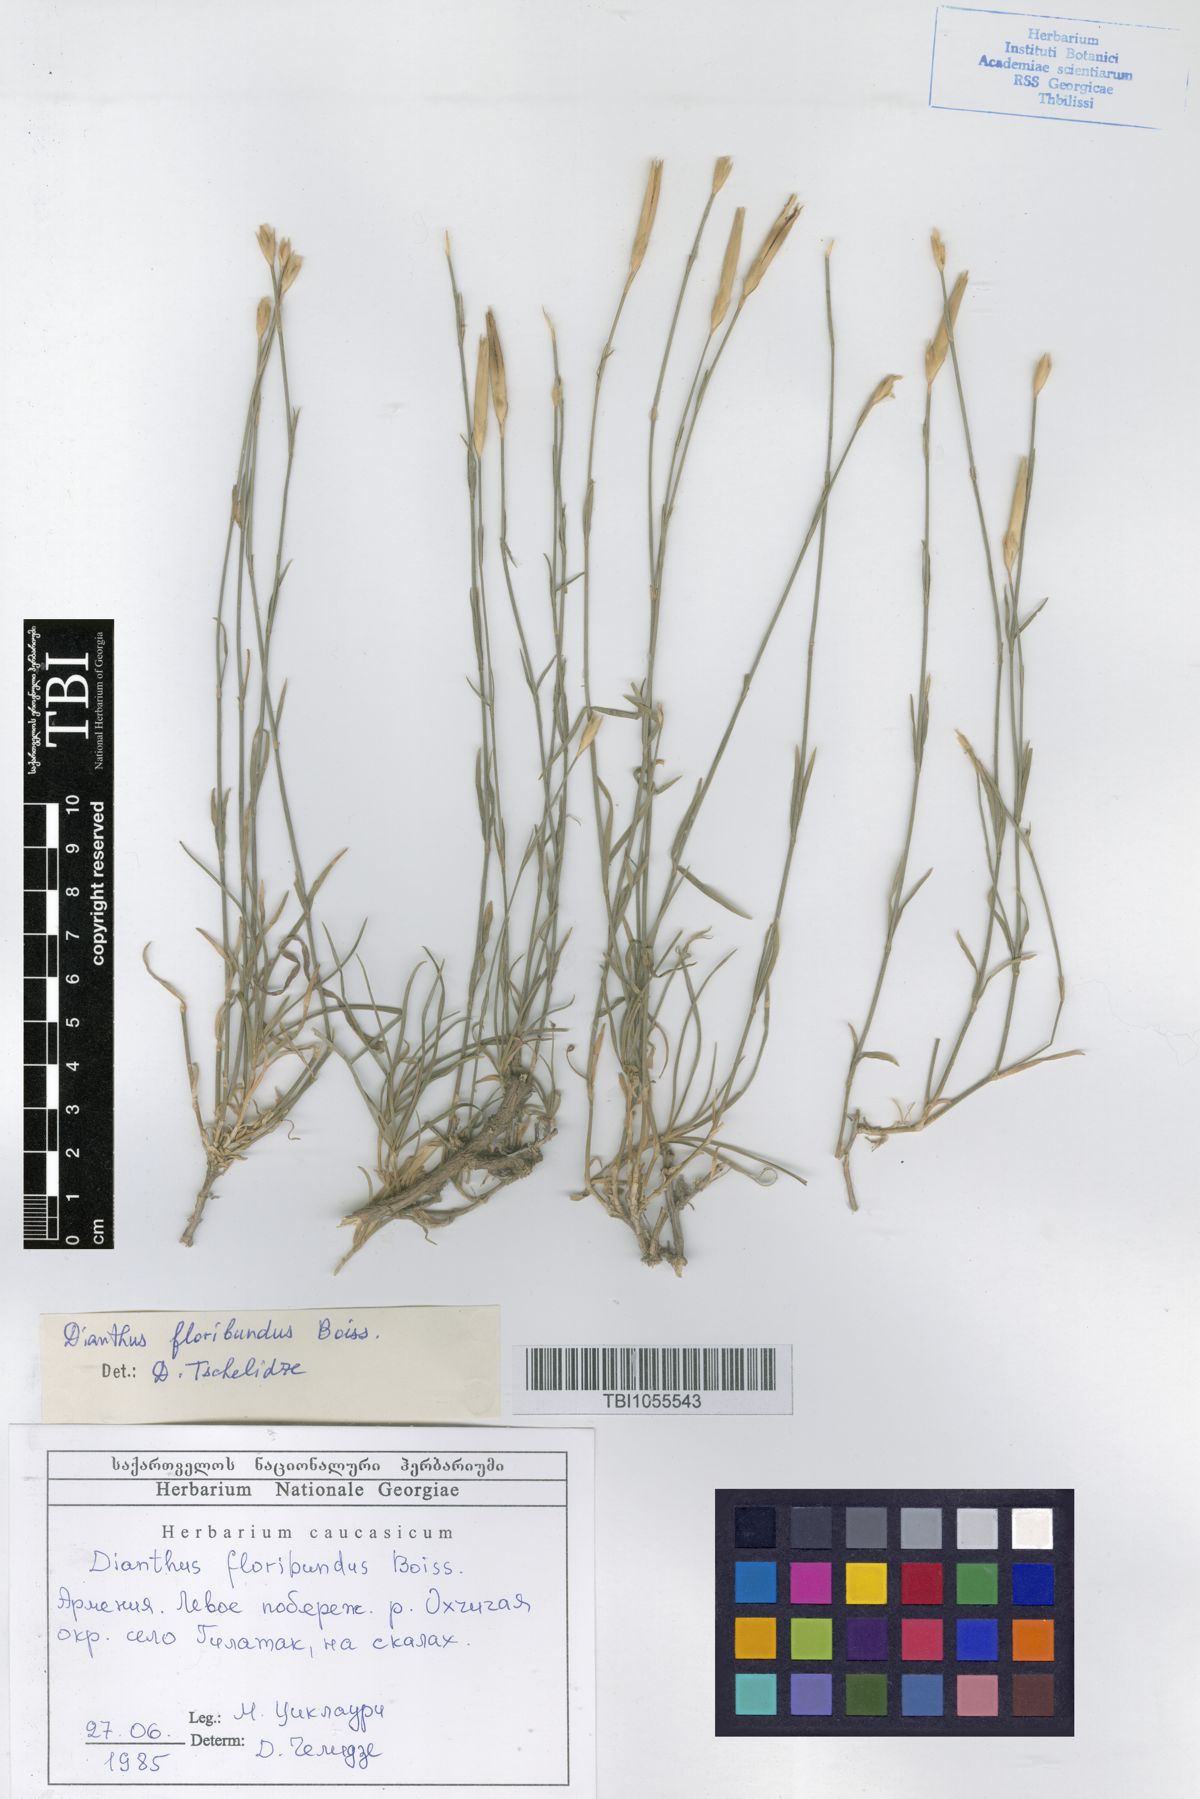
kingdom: Plantae
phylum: Tracheophyta
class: Magnoliopsida
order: Caryophyllales
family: Caryophyllaceae
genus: Dianthus
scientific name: Dianthus floribundus
